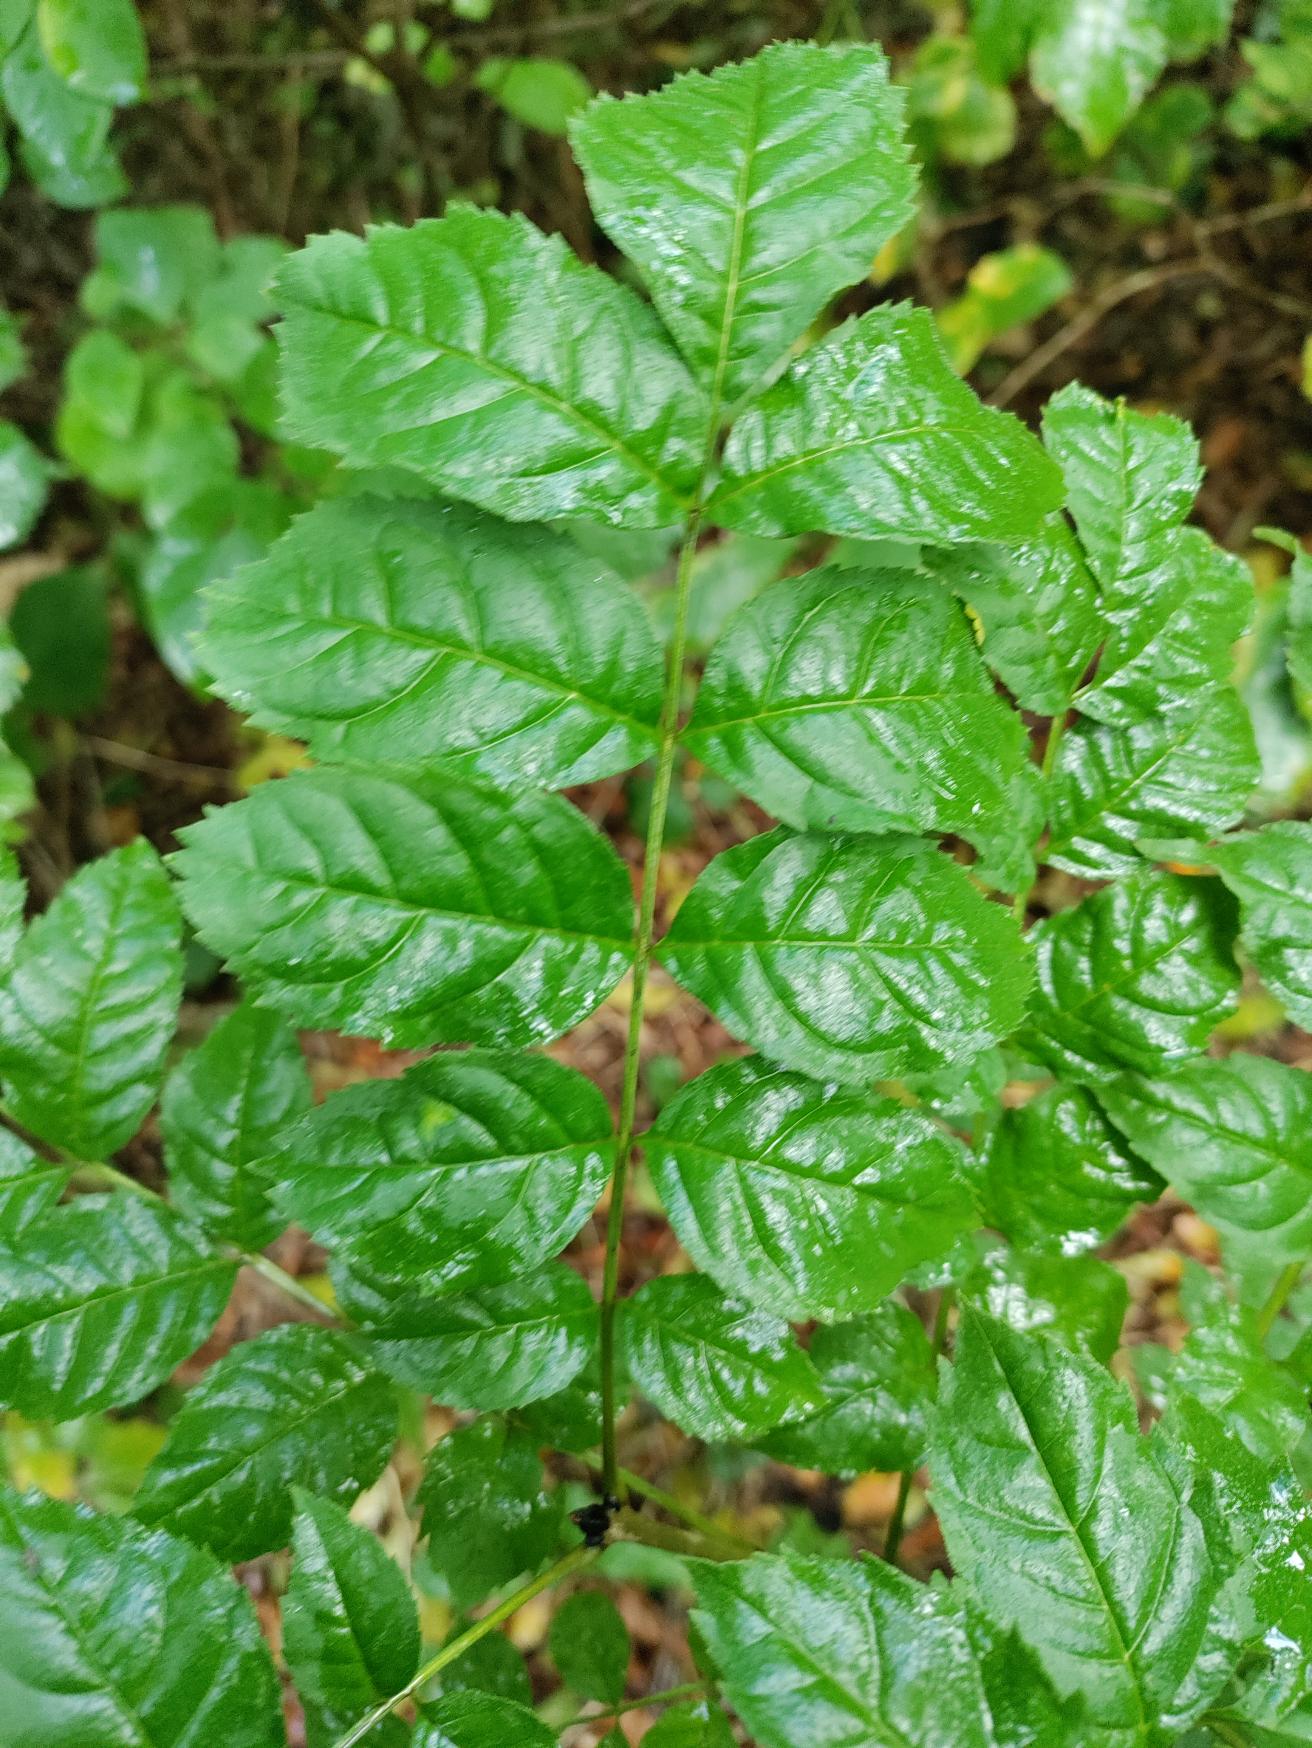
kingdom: Plantae
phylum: Tracheophyta
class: Magnoliopsida
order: Lamiales
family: Oleaceae
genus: Fraxinus
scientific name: Fraxinus excelsior
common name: Ask
